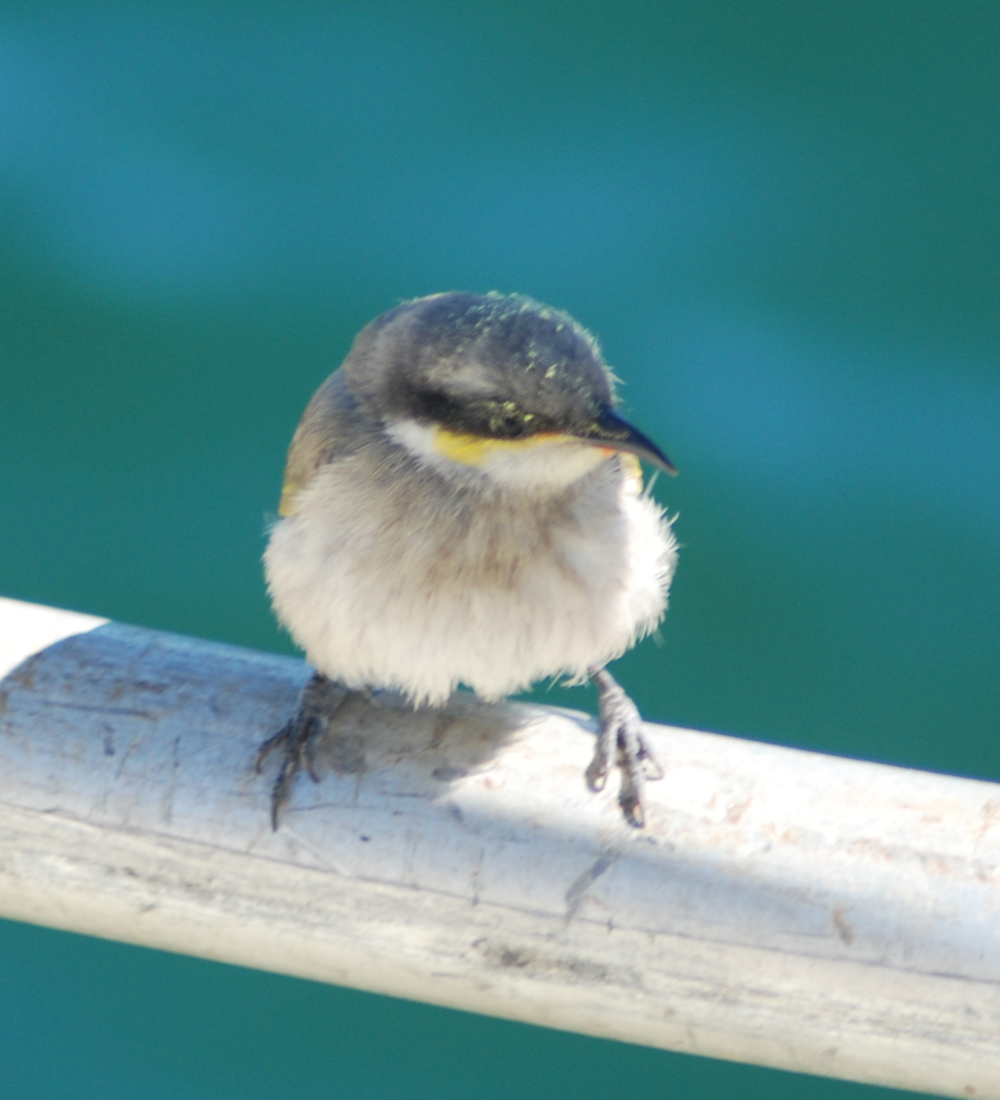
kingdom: Animalia
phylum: Chordata
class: Aves
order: Passeriformes
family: Meliphagidae
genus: Gavicalis
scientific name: Gavicalis virescens
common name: Singing honeyeater
